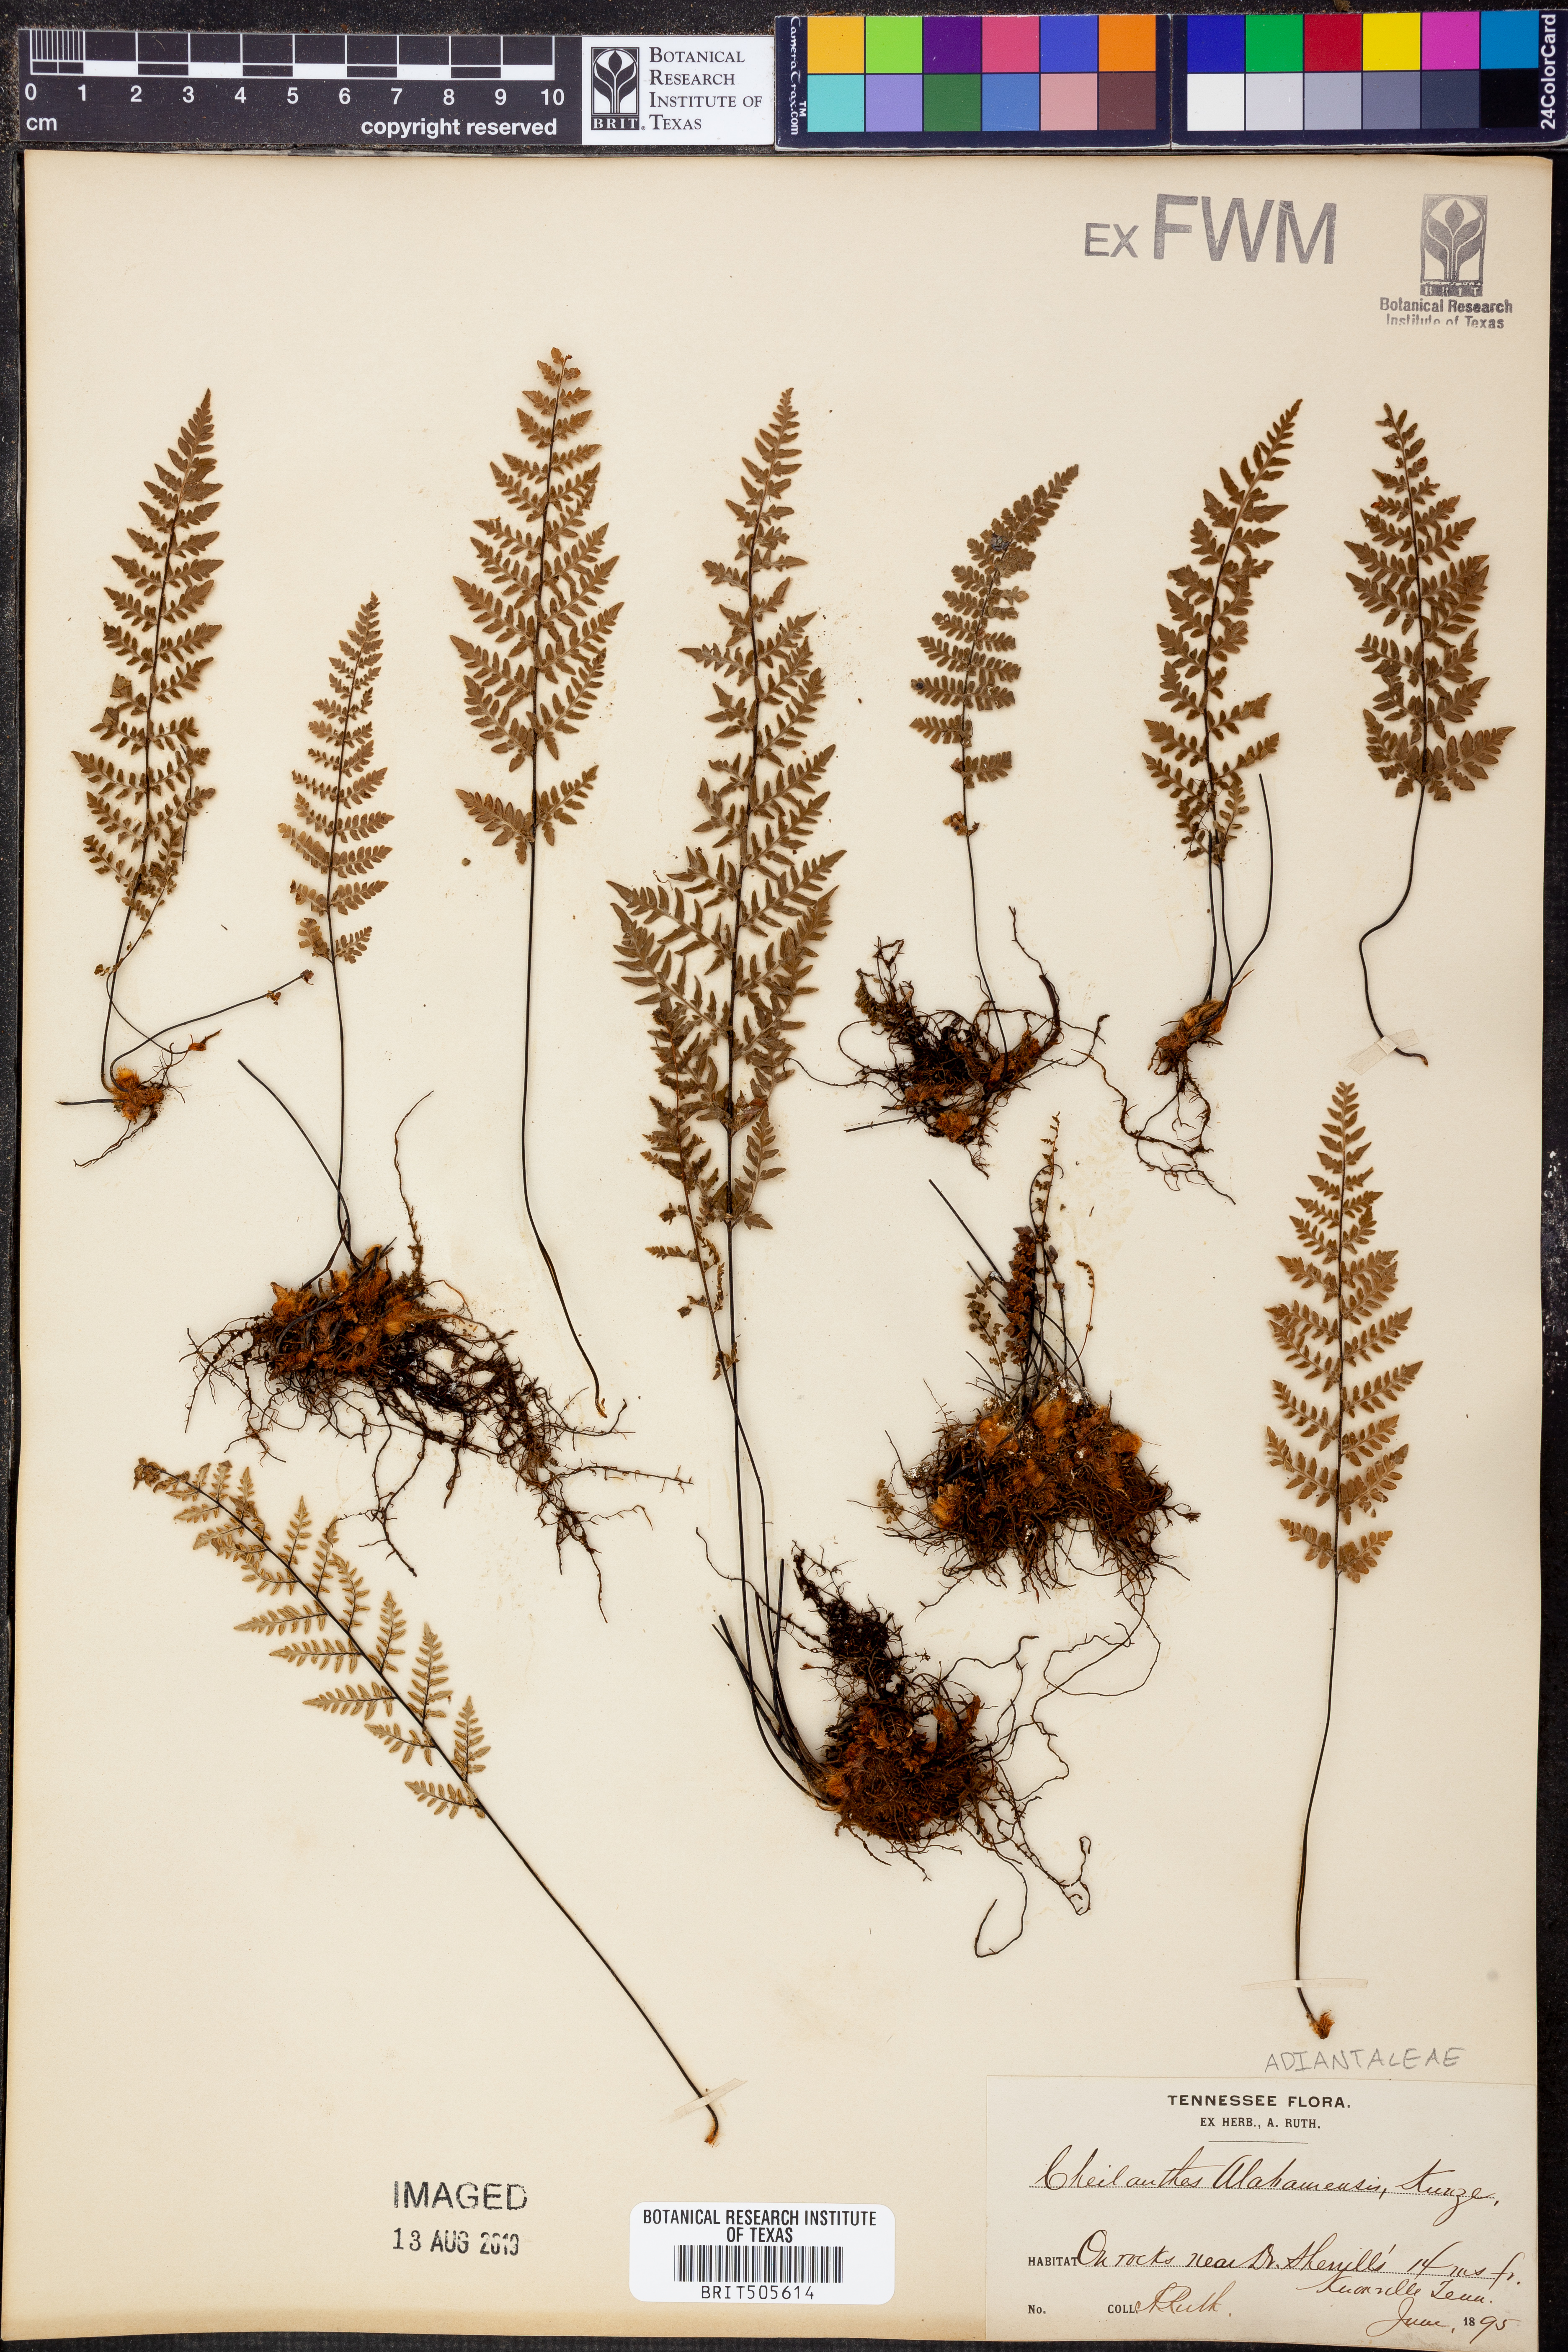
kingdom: Plantae
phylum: Tracheophyta
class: Polypodiopsida
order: Polypodiales
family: Pteridaceae
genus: Myriopteris
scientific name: Myriopteris alabamensis
